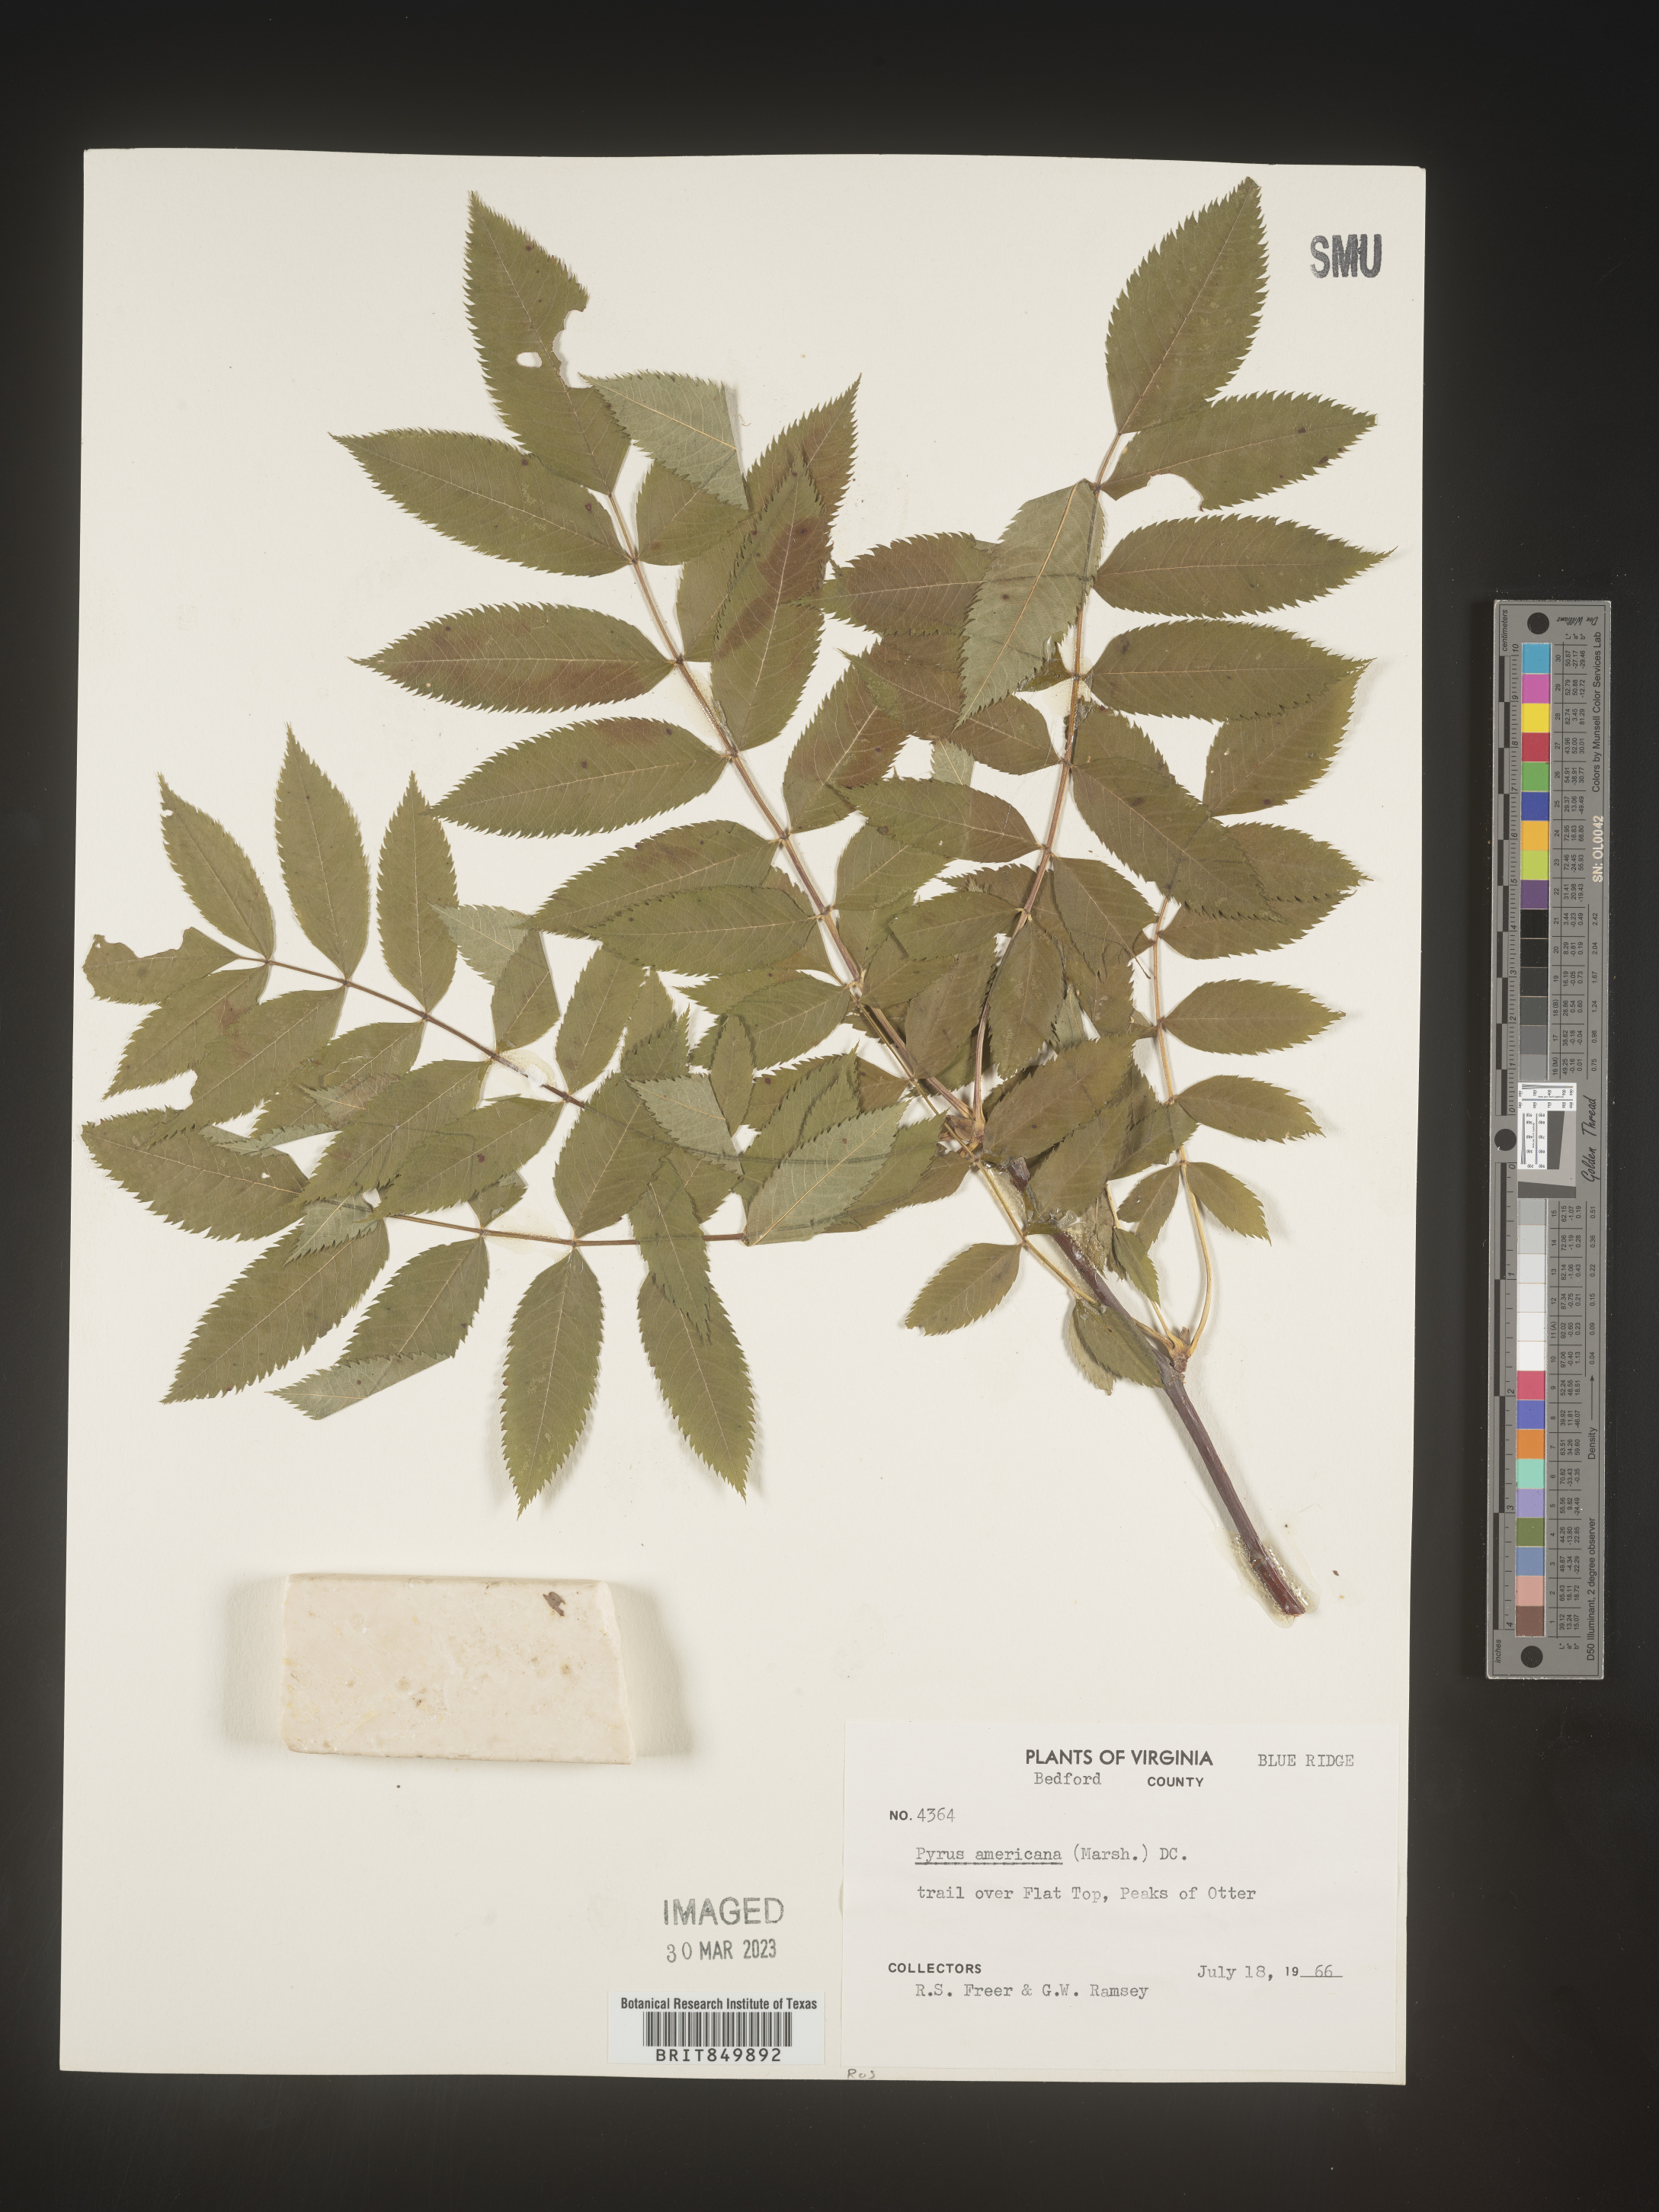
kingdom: Plantae
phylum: Tracheophyta
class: Magnoliopsida
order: Rosales
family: Rosaceae
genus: Pyrus
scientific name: Pyrus
